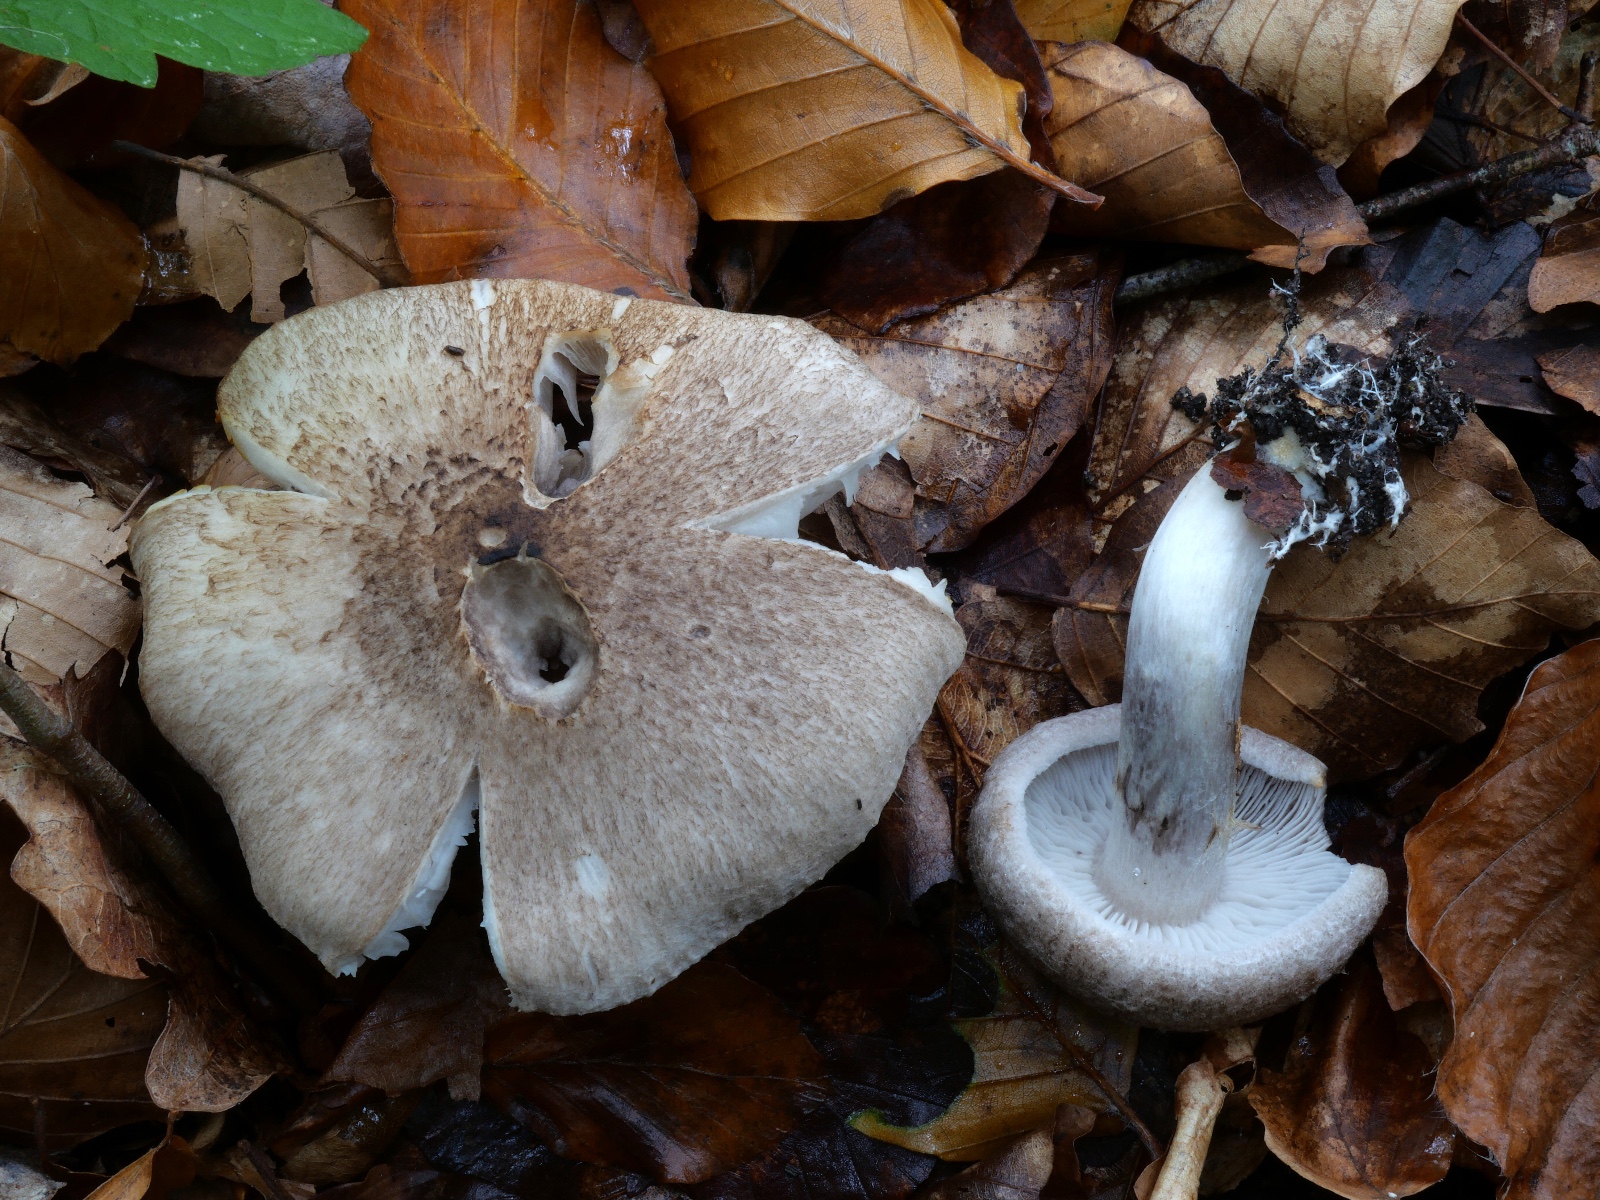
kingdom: Fungi
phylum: Basidiomycota
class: Agaricomycetes
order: Agaricales
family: Tricholomataceae
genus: Tricholoma
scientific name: Tricholoma argyraceum
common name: slør-ridderhat
